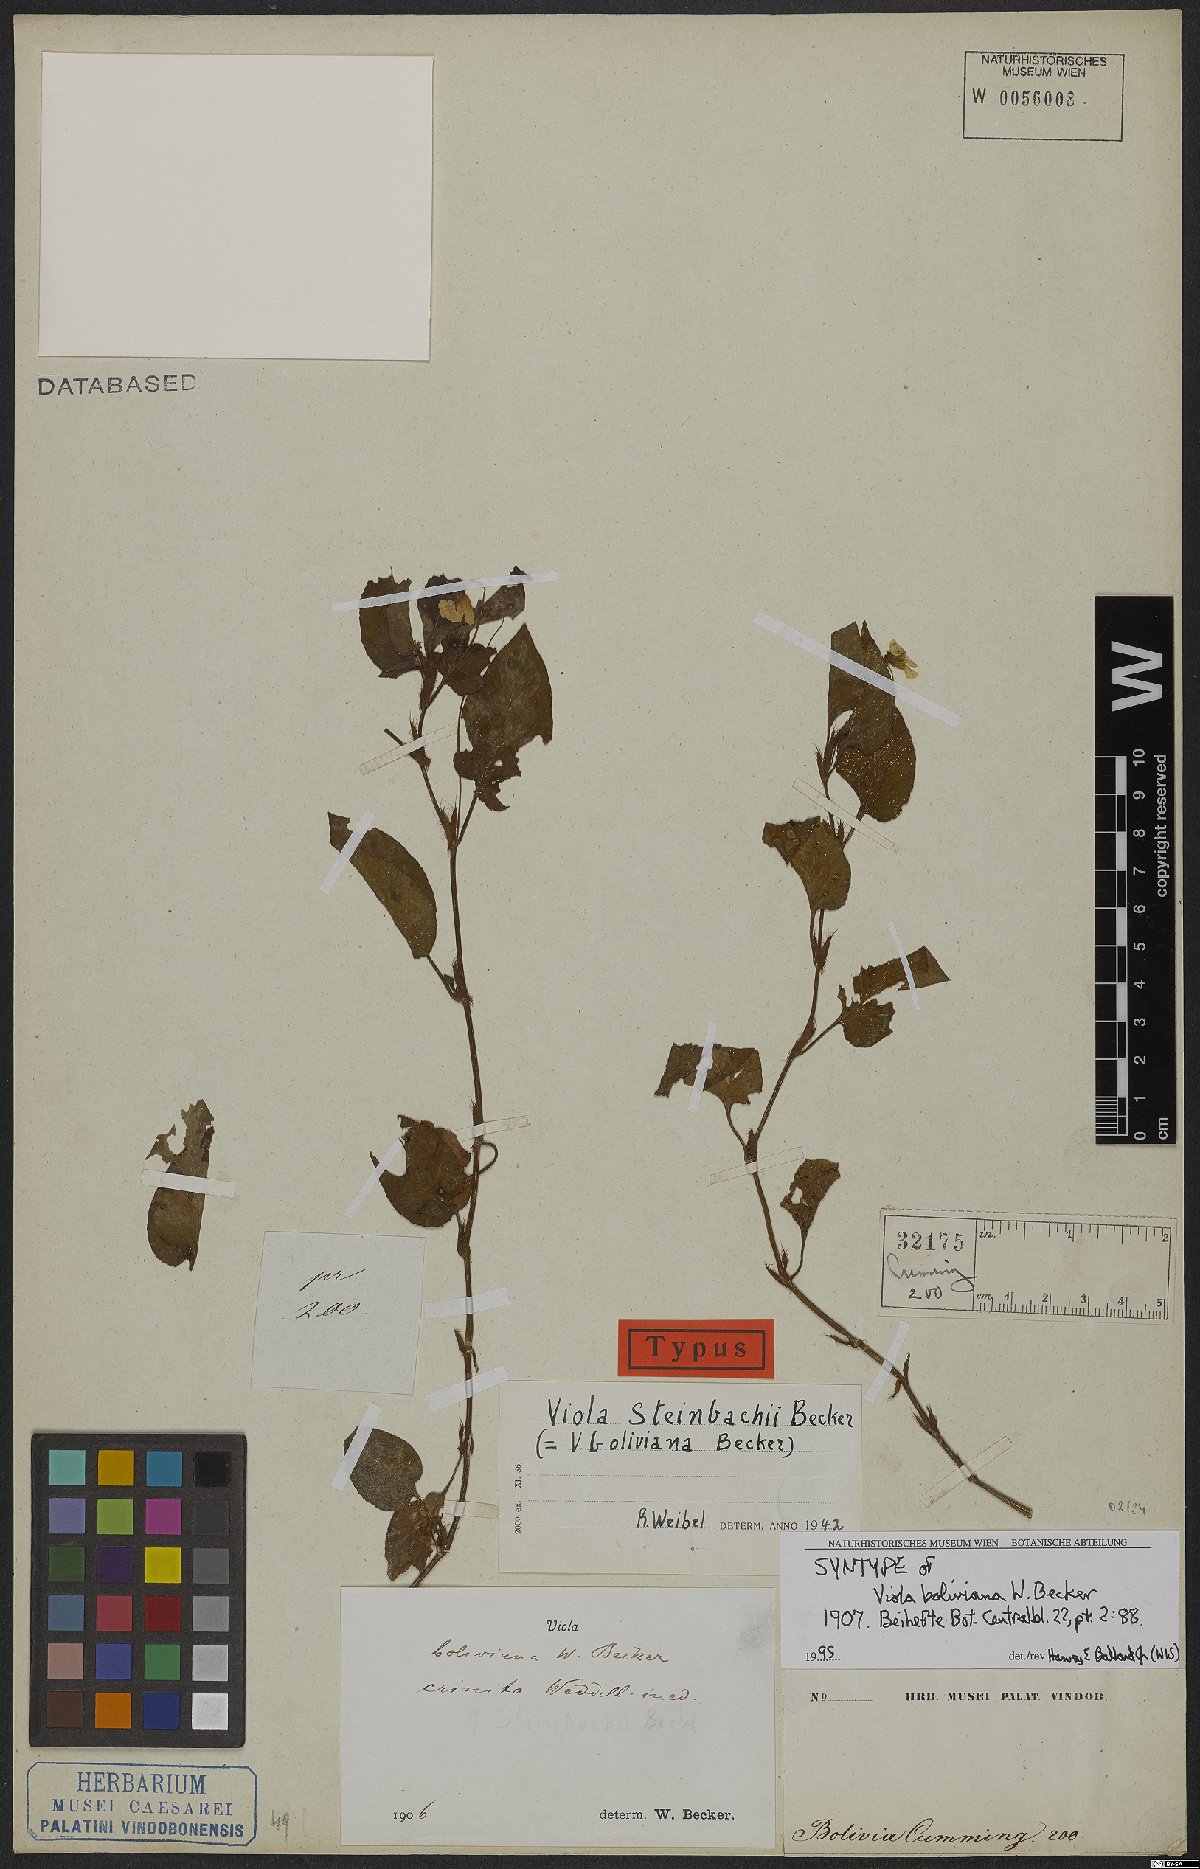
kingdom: Plantae
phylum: Tracheophyta
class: Magnoliopsida
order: Malpighiales
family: Violaceae
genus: Viola
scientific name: Viola steinbachii
